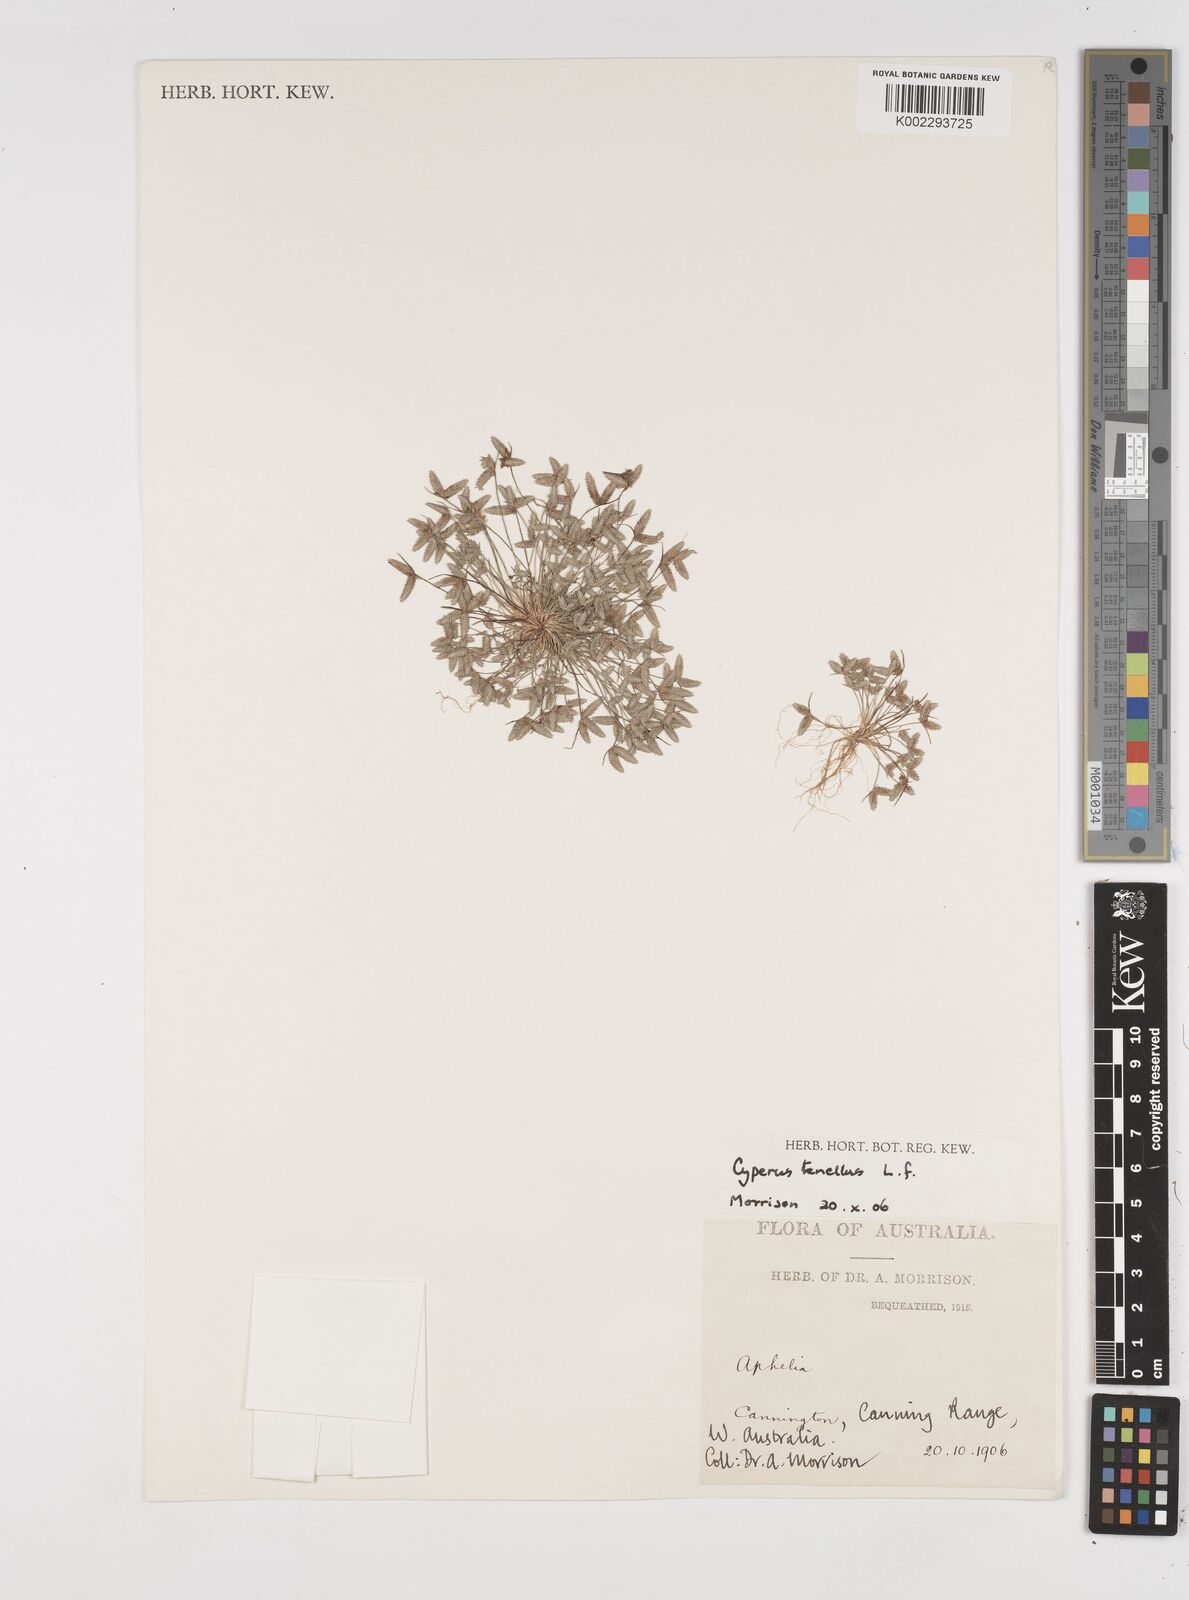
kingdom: Plantae
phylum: Tracheophyta
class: Liliopsida
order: Poales
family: Cyperaceae
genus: Isolepis
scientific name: Isolepis levynsiana
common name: Sedge
